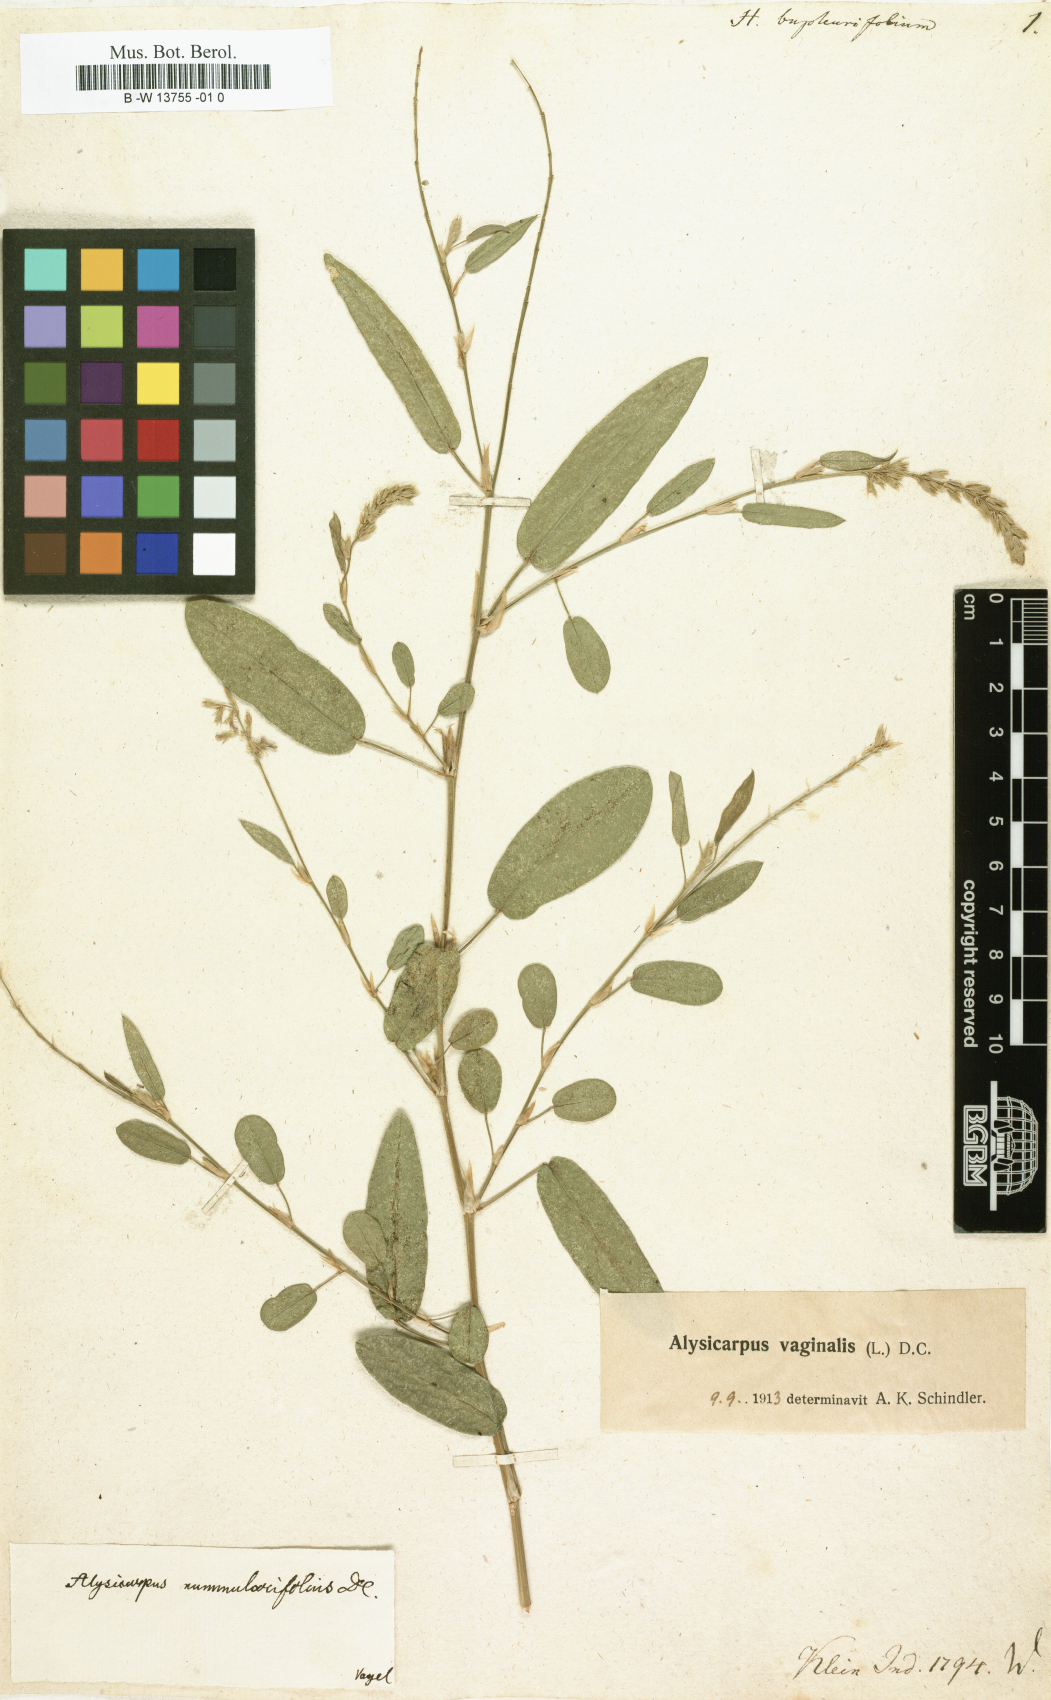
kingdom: Plantae
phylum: Tracheophyta
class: Magnoliopsida
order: Fabales
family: Fabaceae
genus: Alysicarpus
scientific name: Alysicarpus bupleurifolius
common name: Sweet alys
